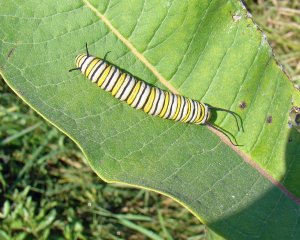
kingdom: Animalia
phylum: Arthropoda
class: Insecta
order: Lepidoptera
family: Nymphalidae
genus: Danaus
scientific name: Danaus plexippus
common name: Monarch
